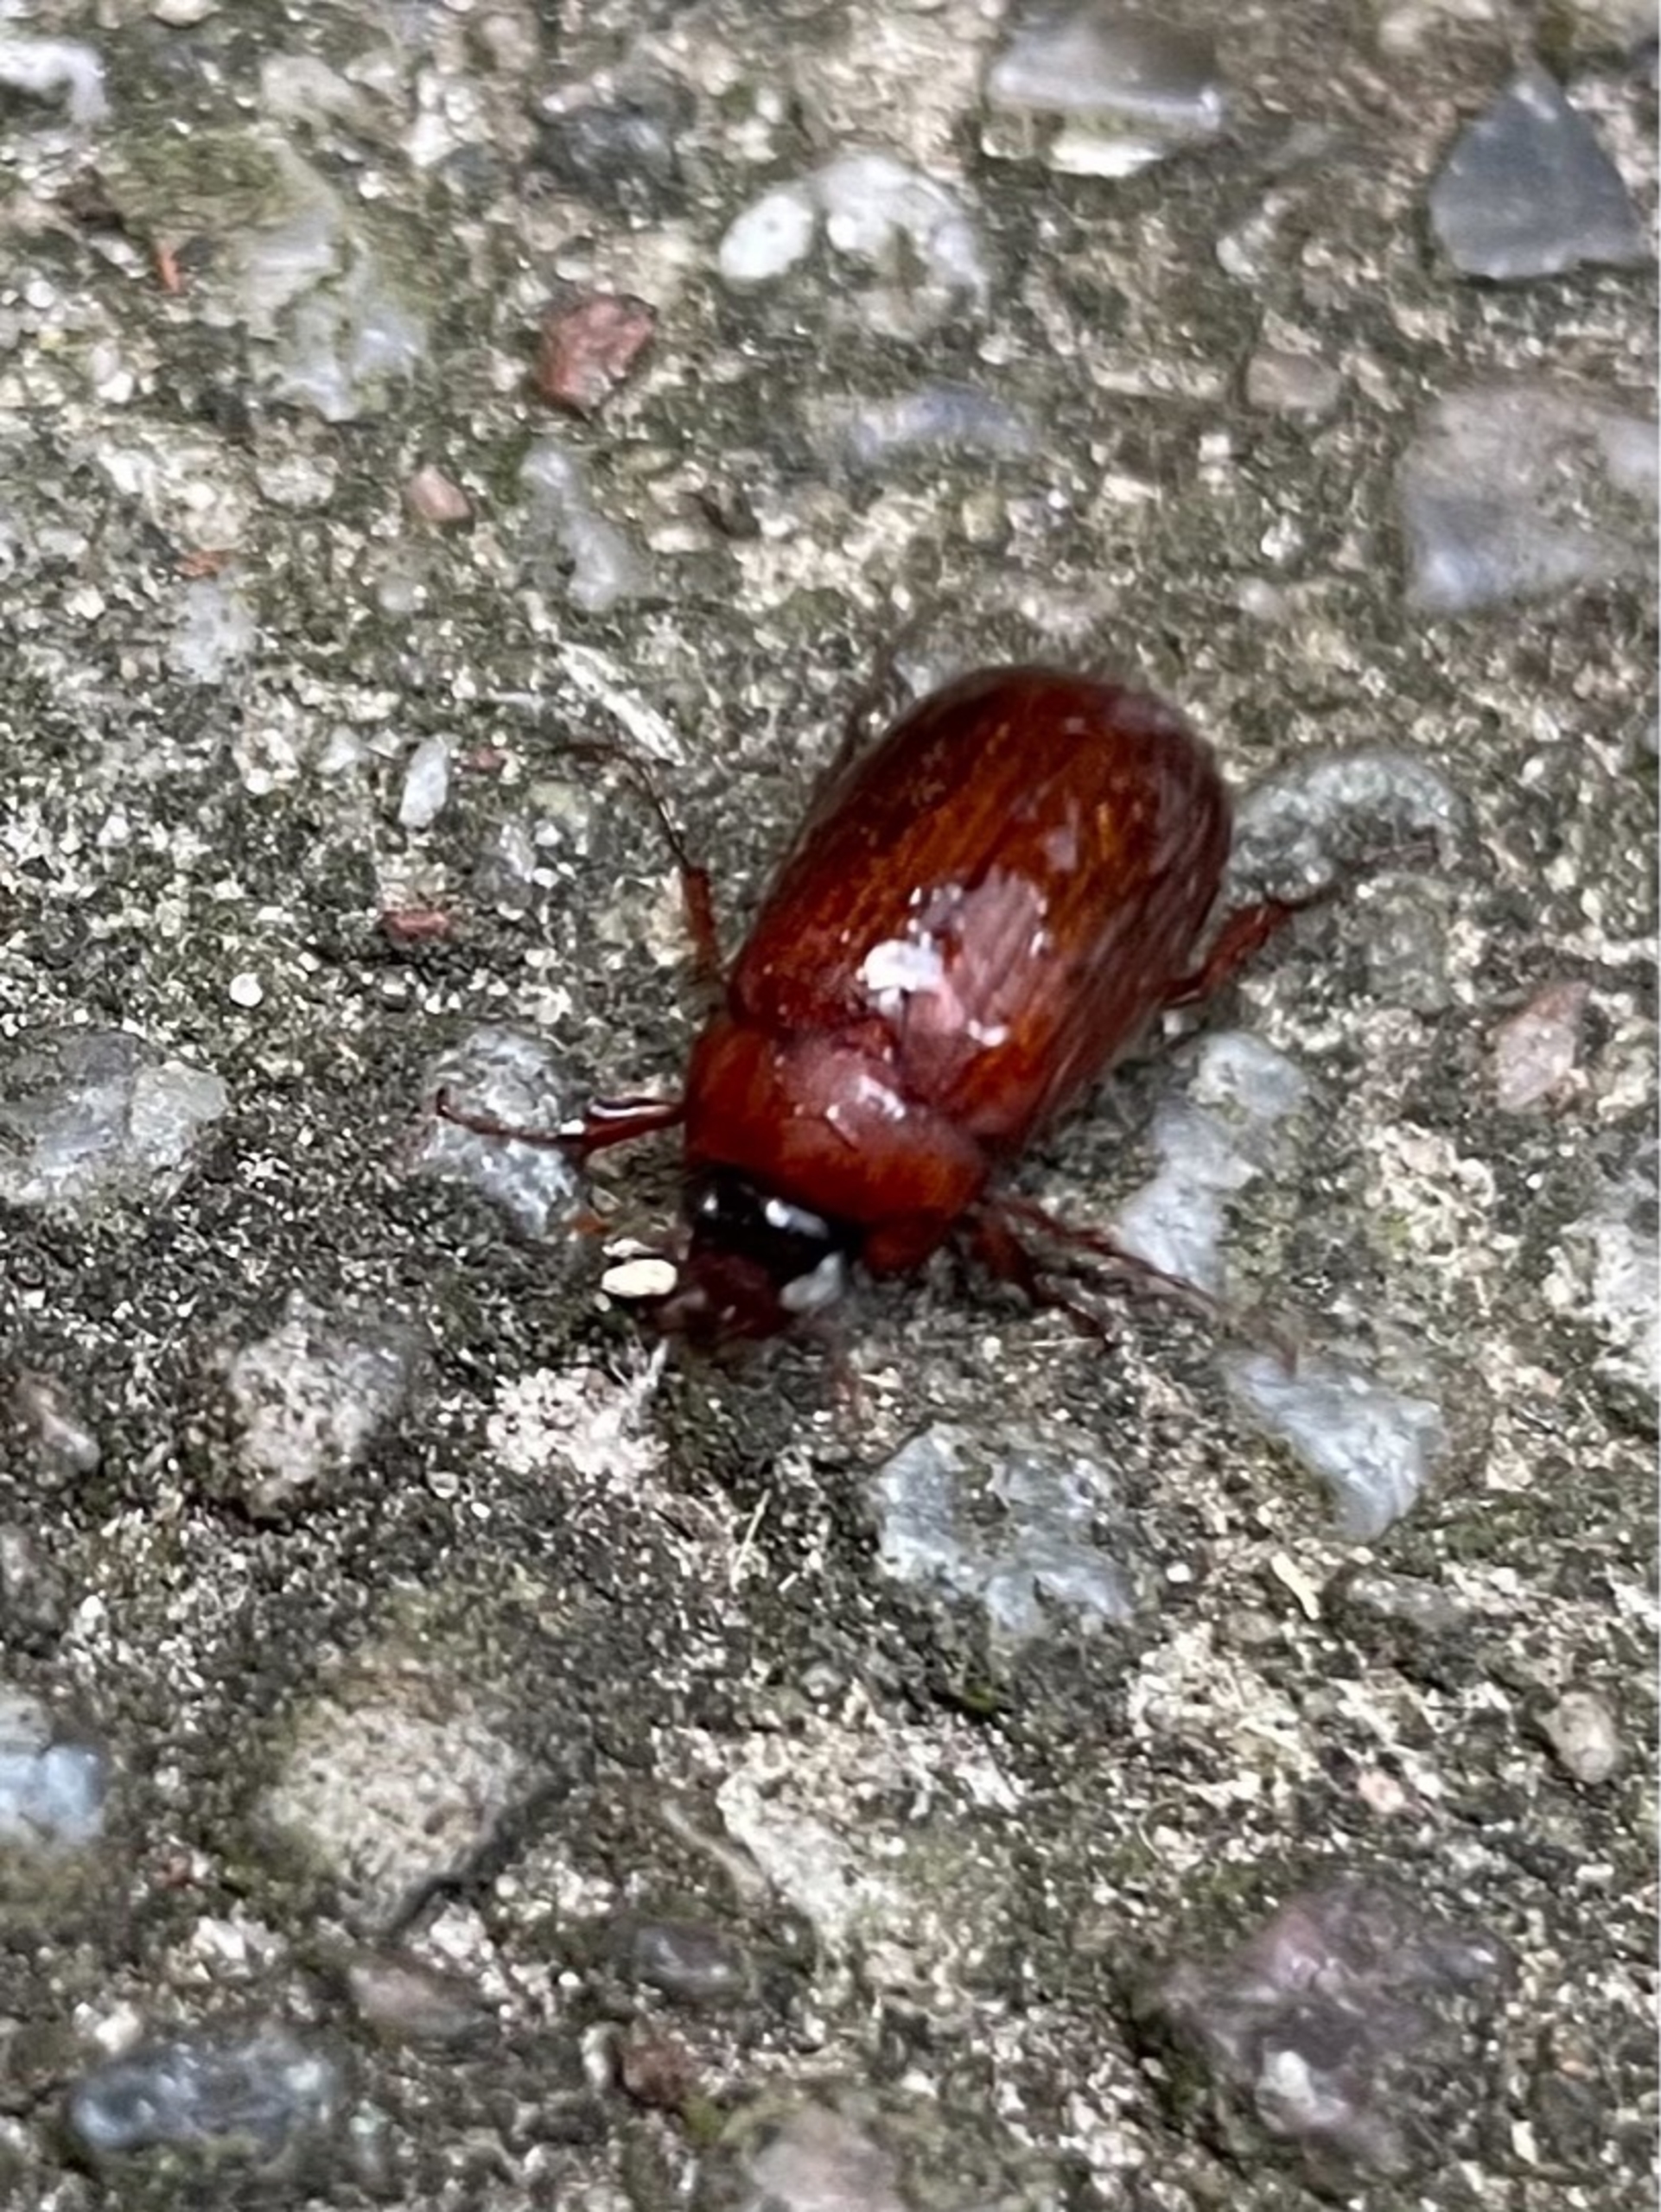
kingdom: Animalia
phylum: Arthropoda
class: Insecta
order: Coleoptera
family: Scarabaeidae
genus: Serica
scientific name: Serica brunnea
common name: Natoldenborre
